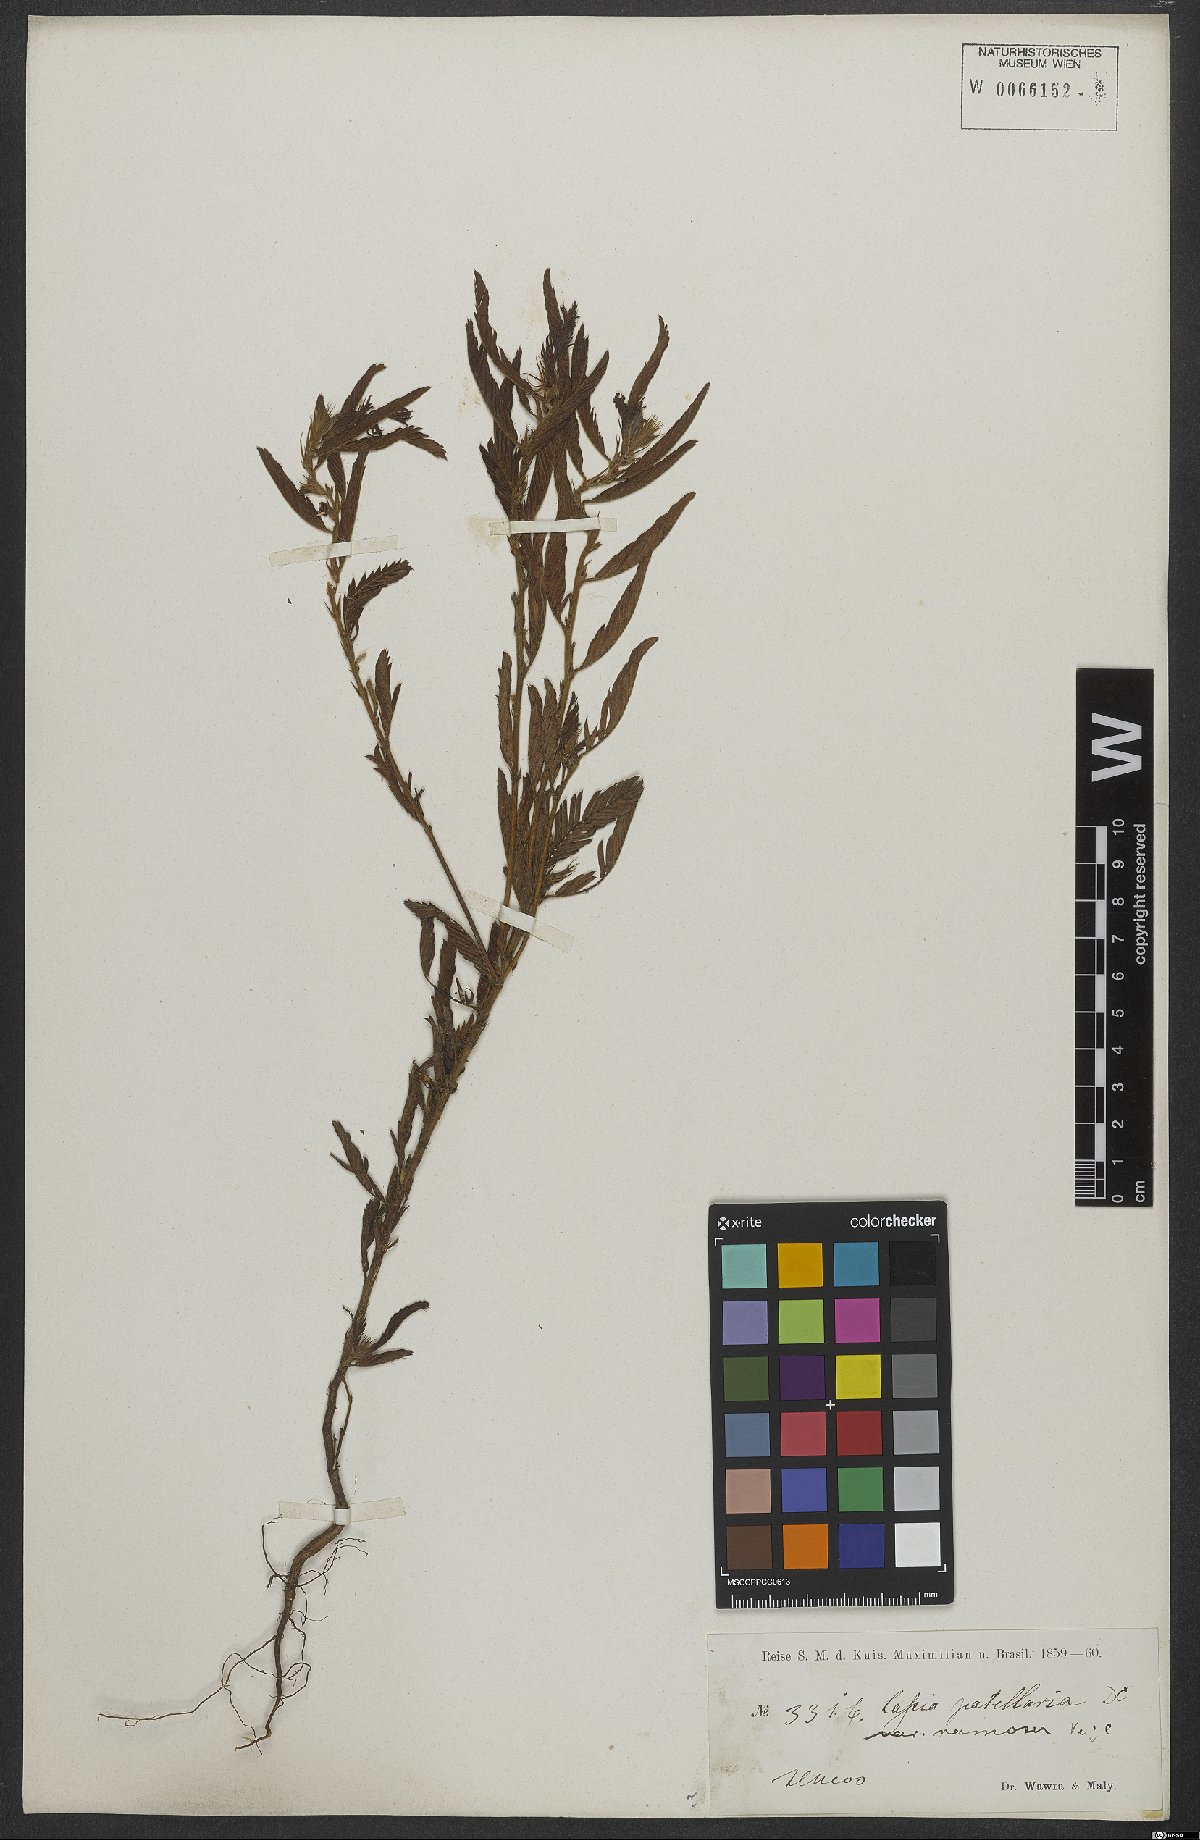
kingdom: Plantae
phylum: Tracheophyta
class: Magnoliopsida
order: Fabales
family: Fabaceae
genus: Chamaecrista
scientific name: Chamaecrista nictitans
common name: Sensitive cassia
